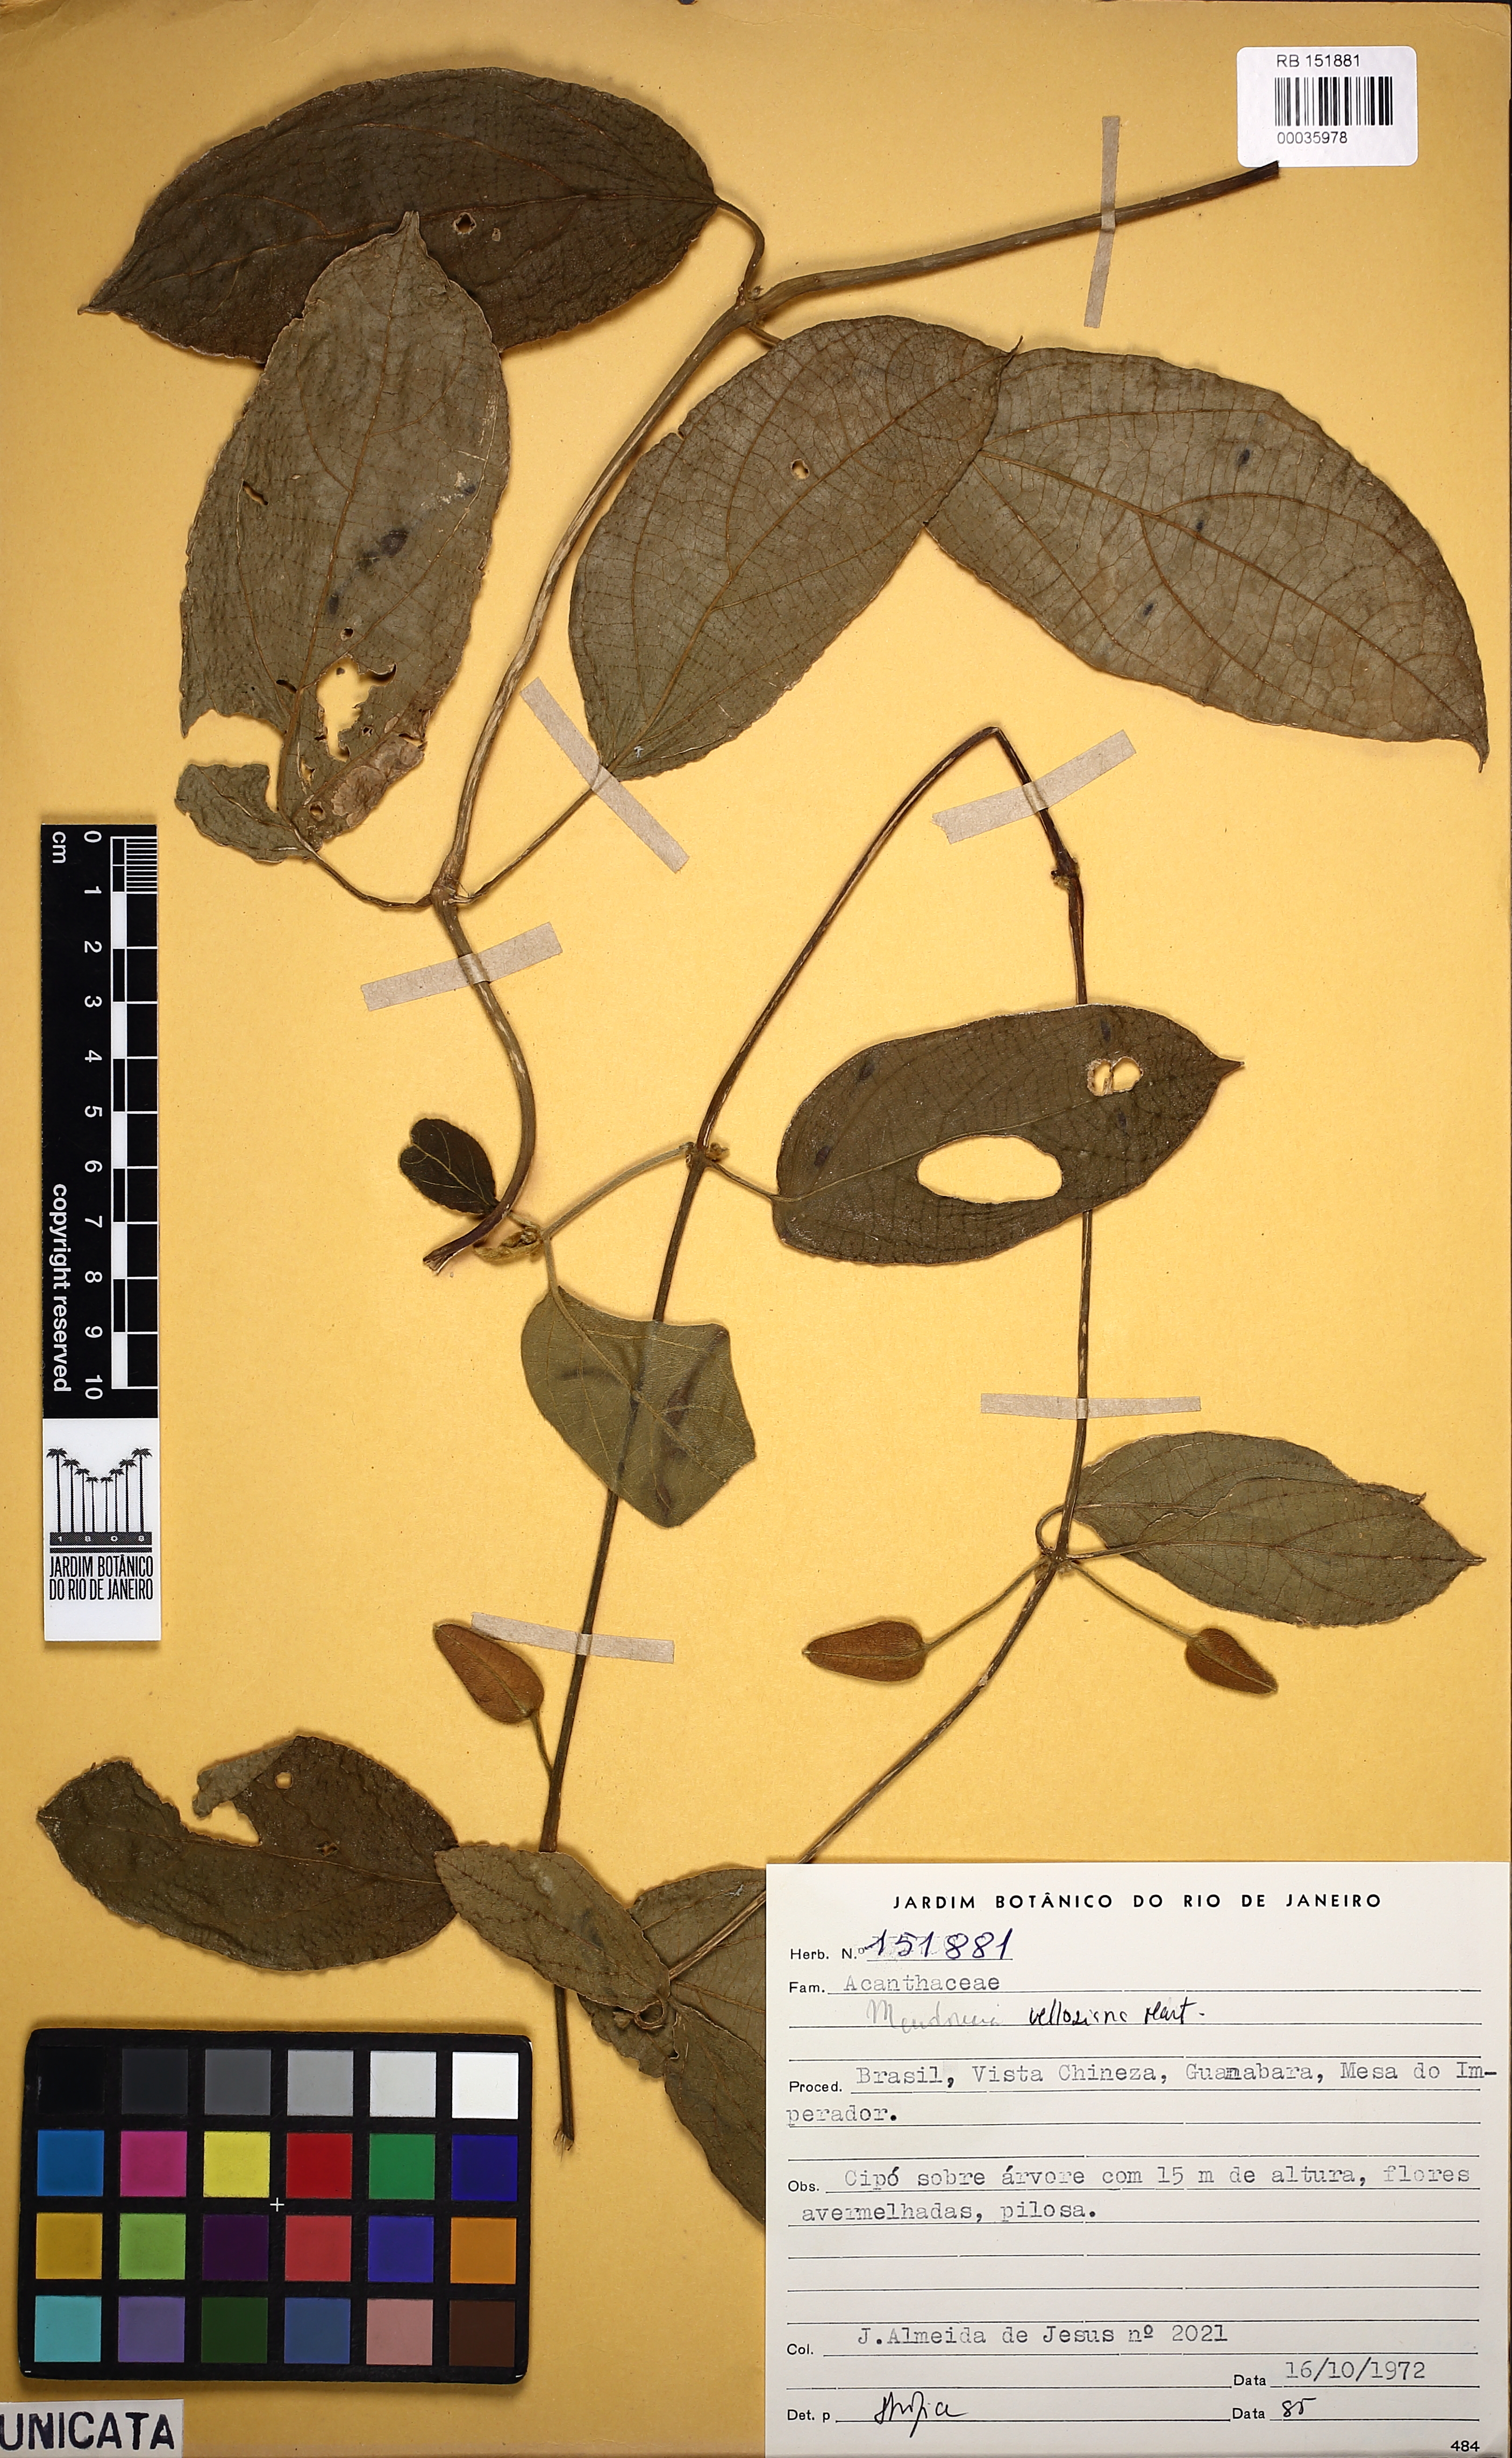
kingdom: Plantae
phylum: Tracheophyta
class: Magnoliopsida
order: Lamiales
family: Acanthaceae
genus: Mendoncia
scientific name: Mendoncia velloziana
